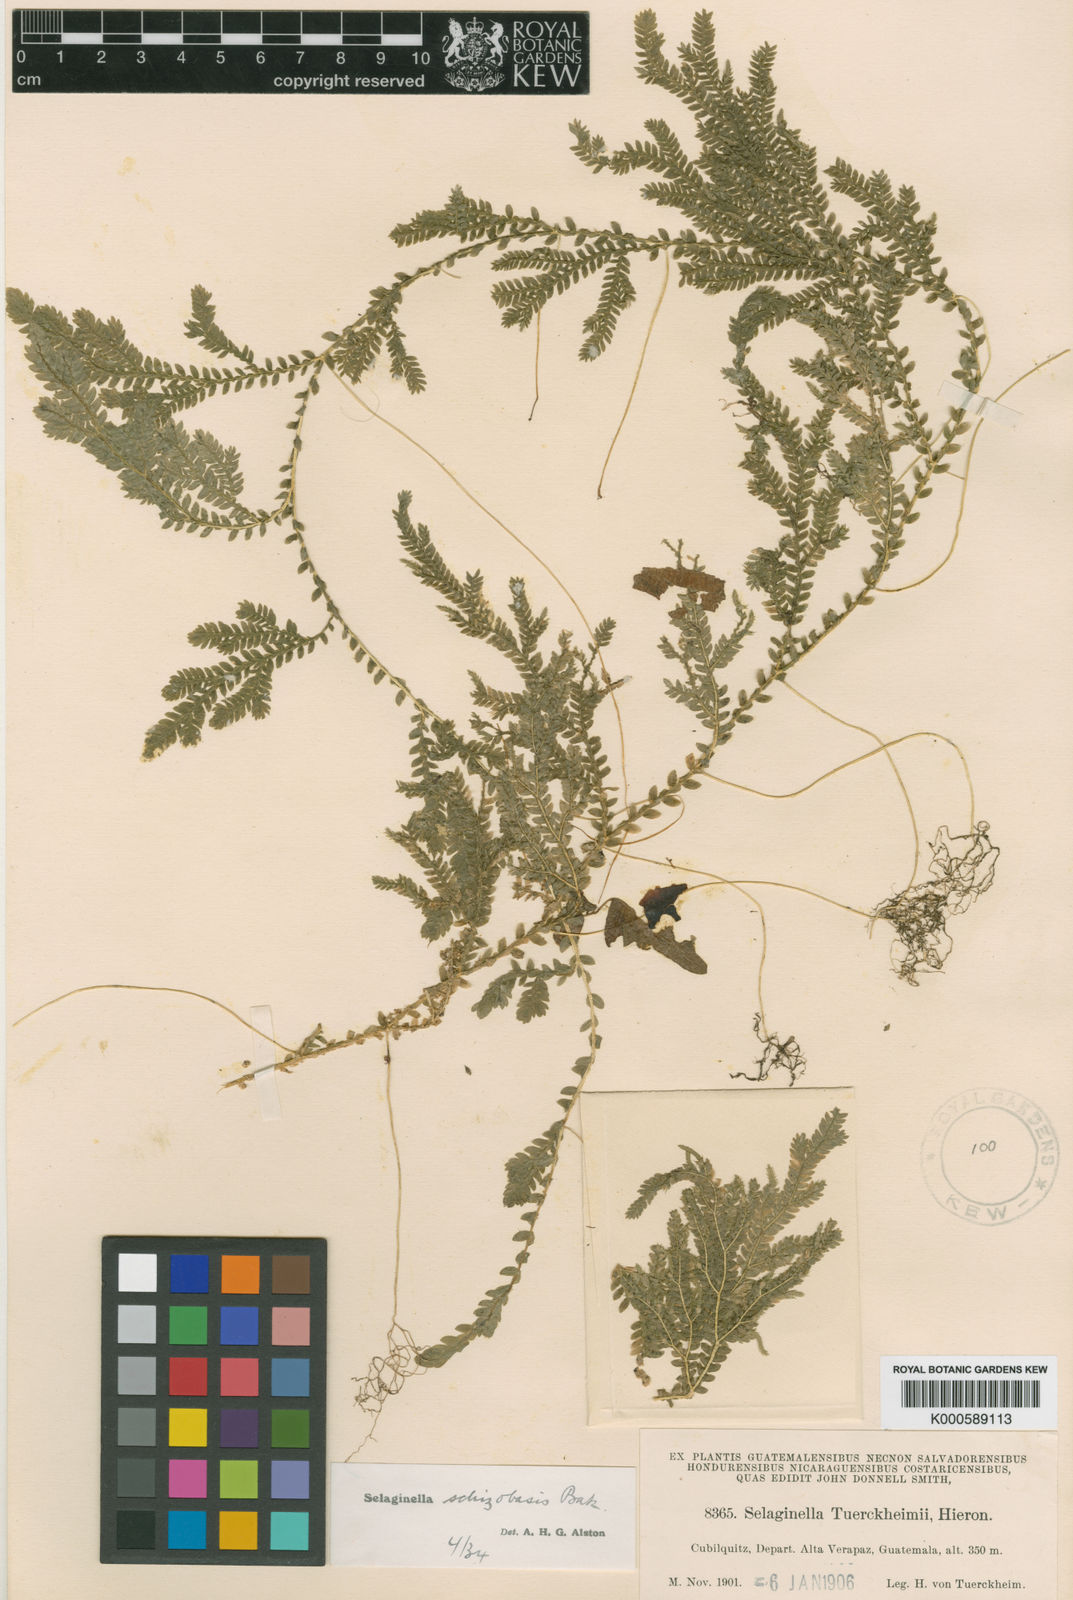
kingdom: Plantae
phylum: Tracheophyta
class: Lycopodiopsida
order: Selaginellales
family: Selaginellaceae
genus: Selaginella
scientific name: Selaginella schizobasis
